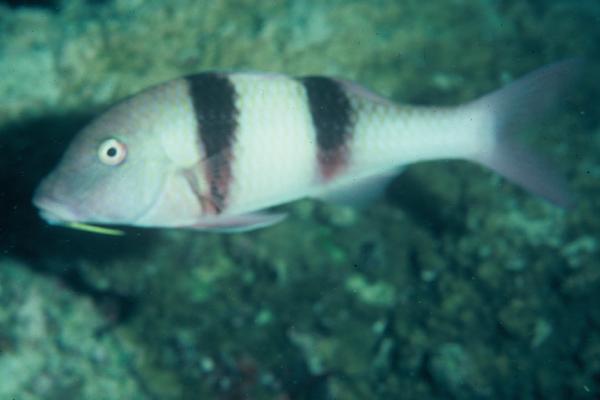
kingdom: Animalia
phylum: Chordata
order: Perciformes
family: Mullidae
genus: Parupeneus
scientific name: Parupeneus trifasciatus
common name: Doublebar goatfish
